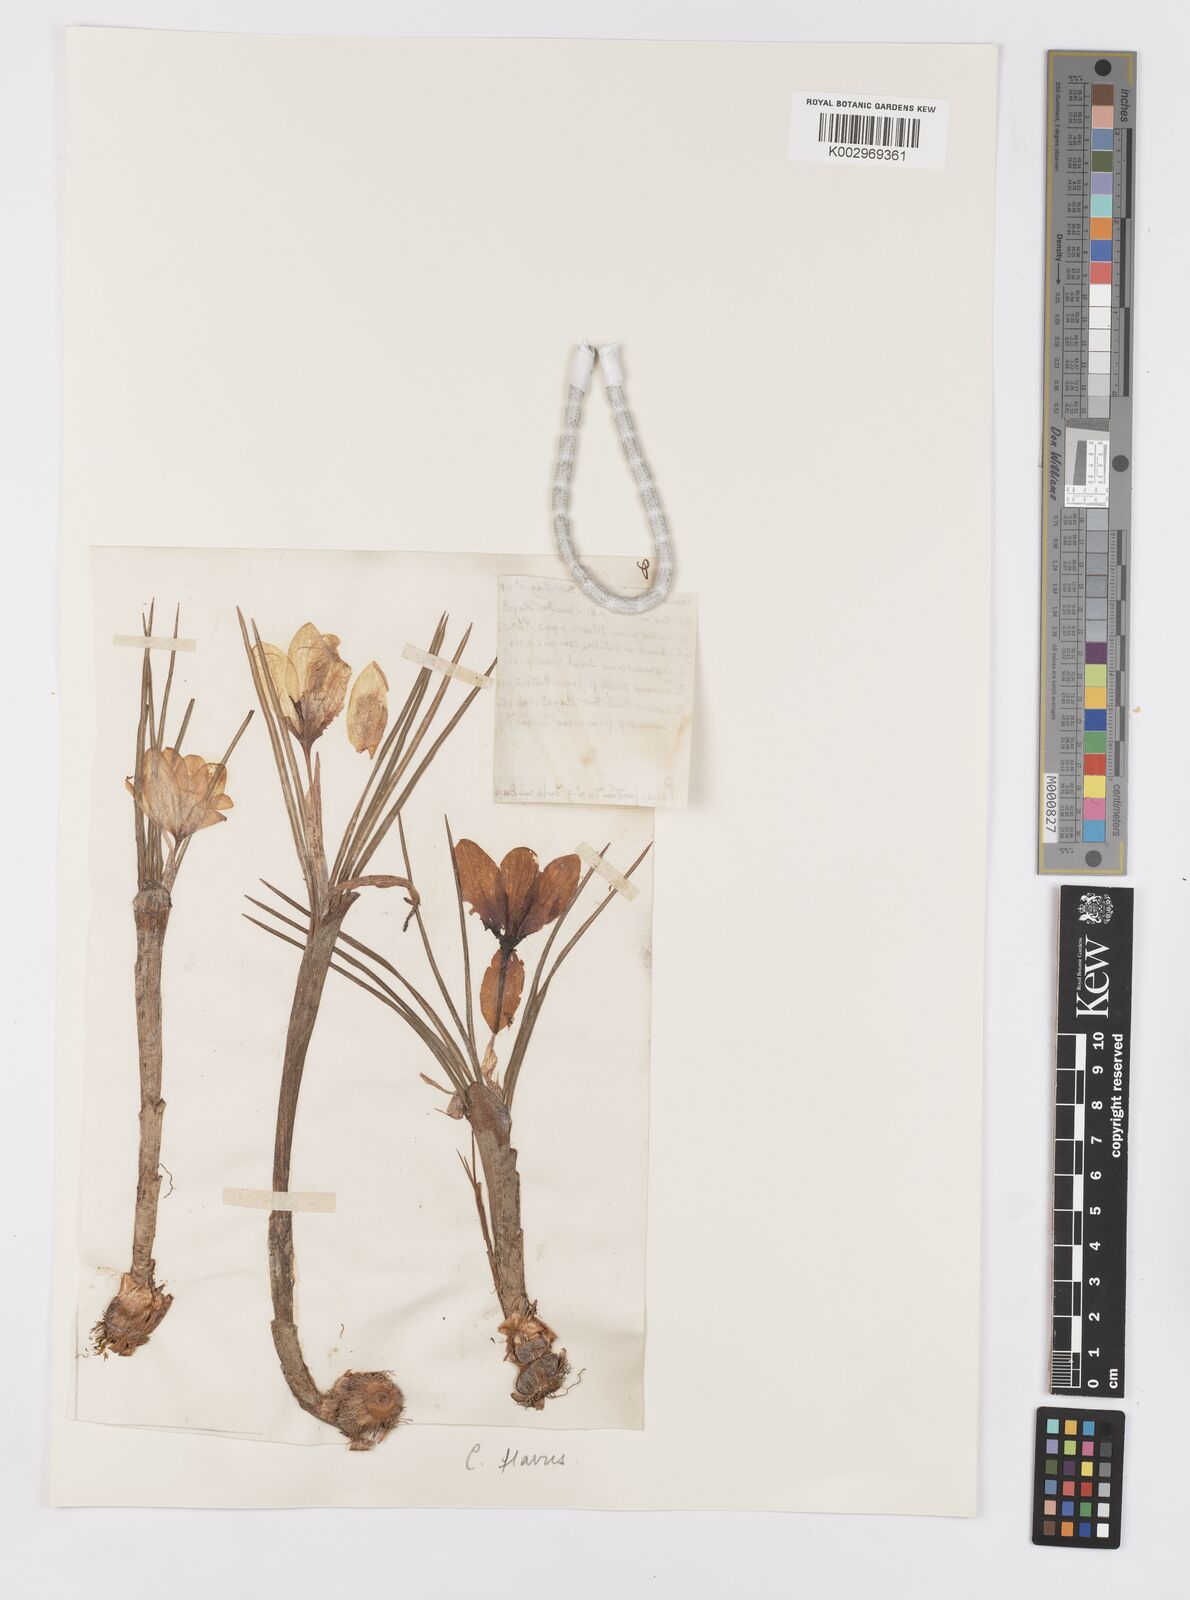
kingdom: Plantae
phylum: Tracheophyta
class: Liliopsida
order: Asparagales
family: Iridaceae
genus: Crocus
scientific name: Crocus flavus
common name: Yellow crocus
